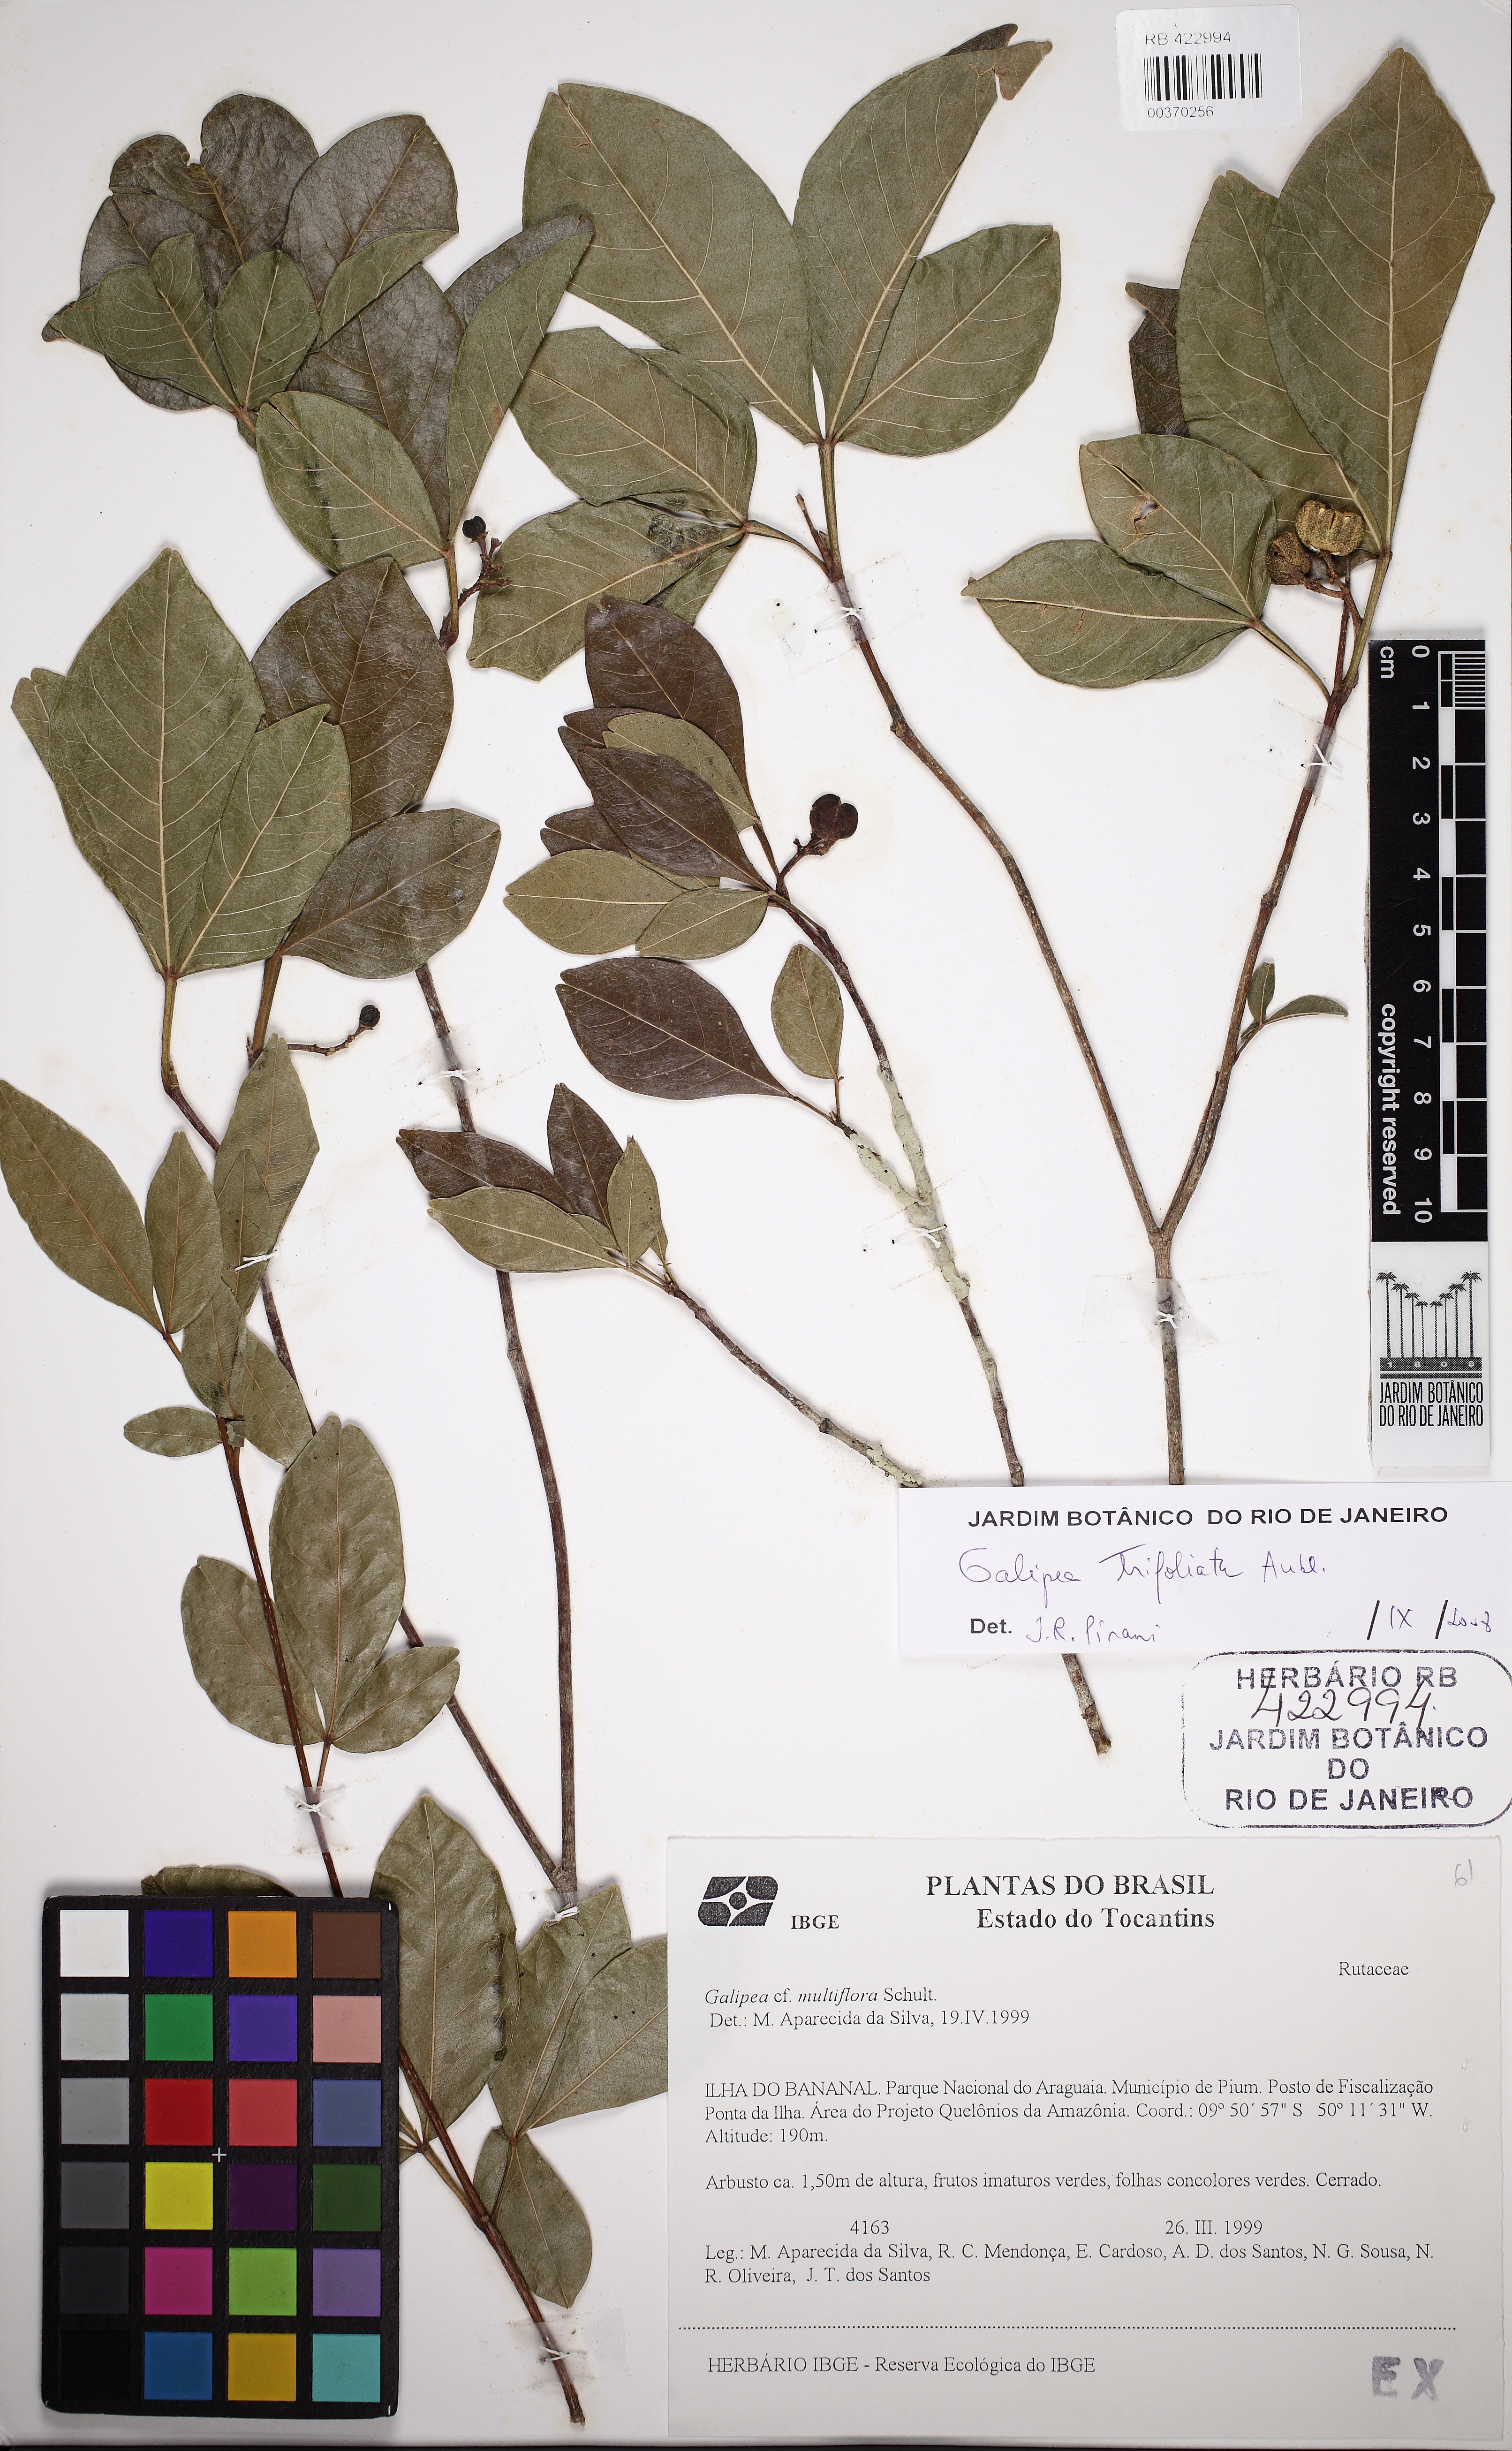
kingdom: Plantae
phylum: Tracheophyta
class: Magnoliopsida
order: Sapindales
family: Rutaceae
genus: Galipea
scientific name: Galipea trifoliata
